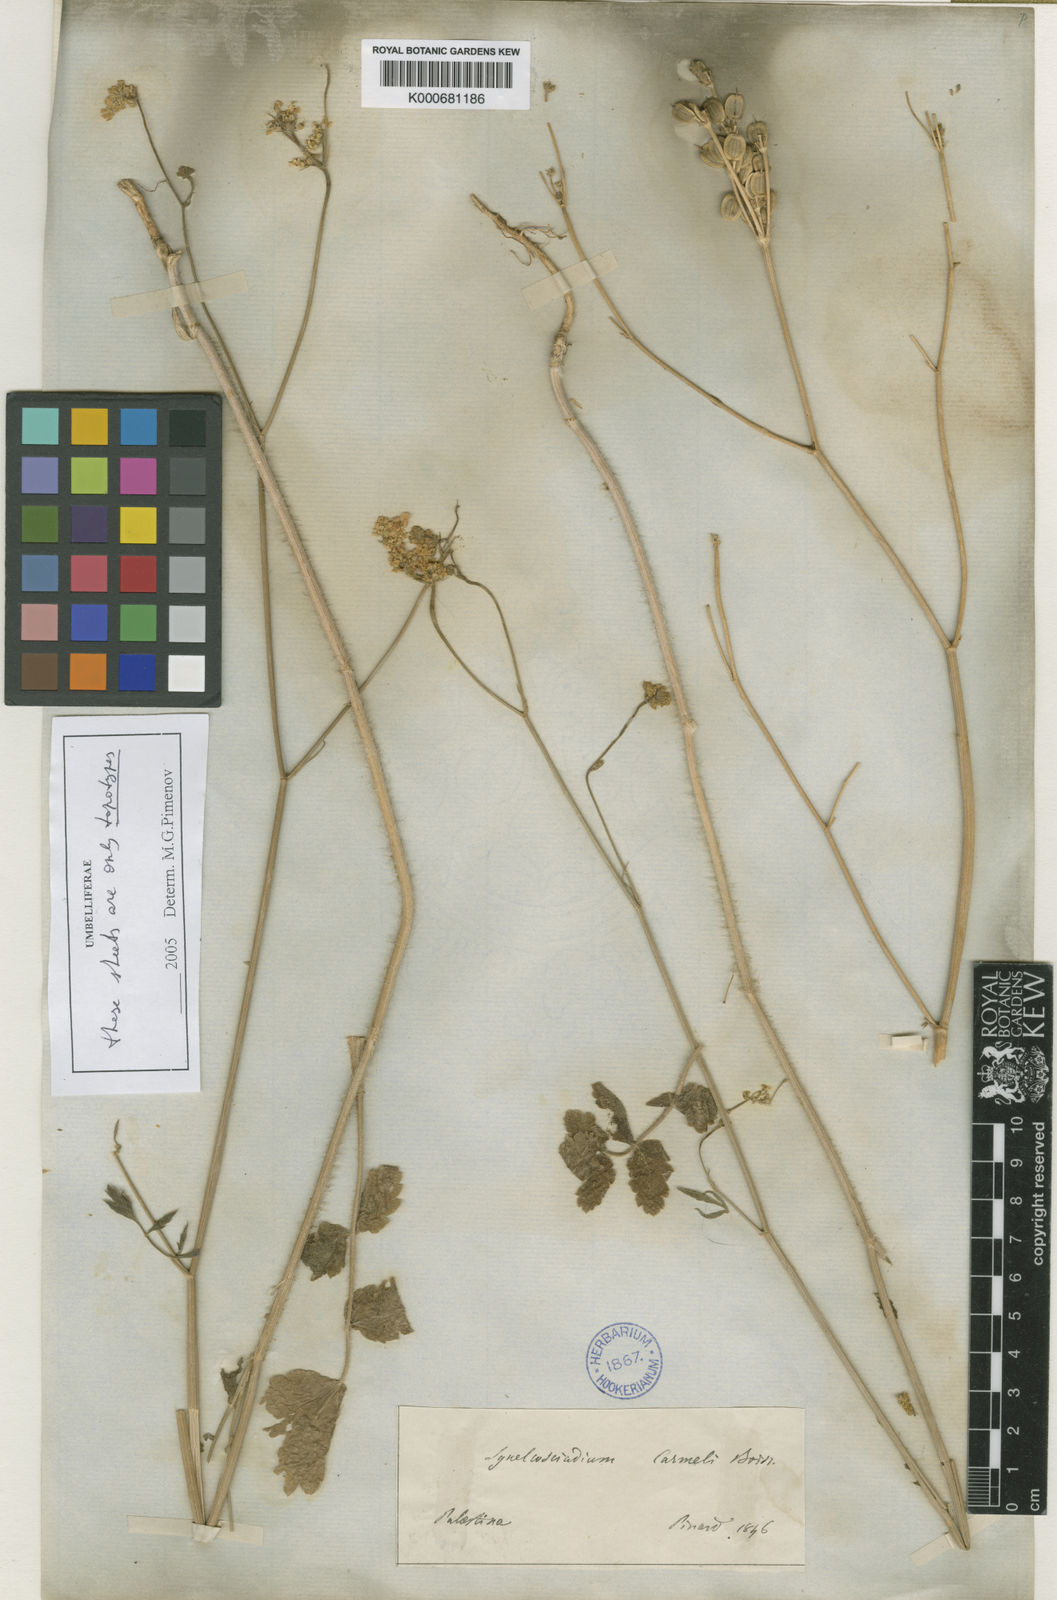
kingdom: Plantae
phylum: Tracheophyta
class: Magnoliopsida
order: Apiales
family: Apiaceae
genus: Synelcosciadium
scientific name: Synelcosciadium carmeli
